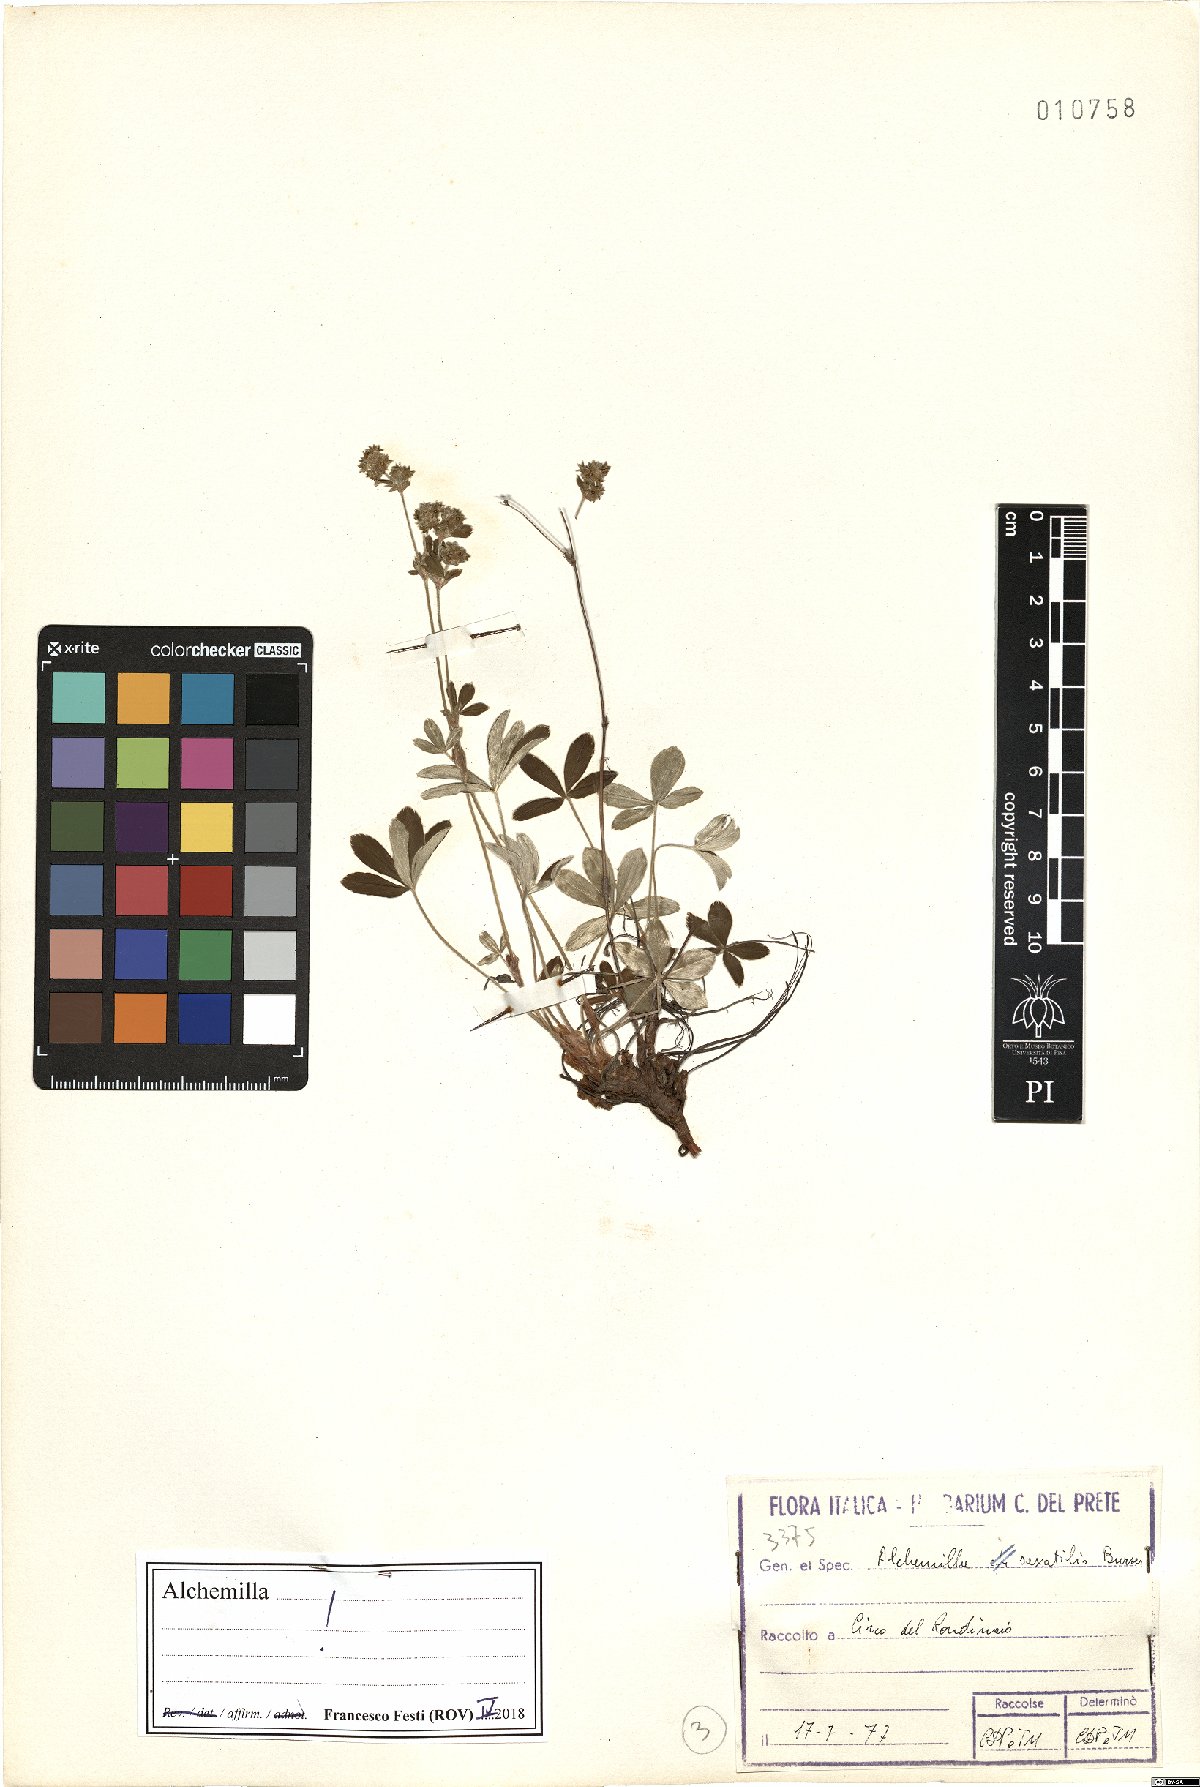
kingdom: Plantae
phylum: Tracheophyta
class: Magnoliopsida
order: Rosales
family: Rosaceae
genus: Alchemilla
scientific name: Alchemilla saxatilis
